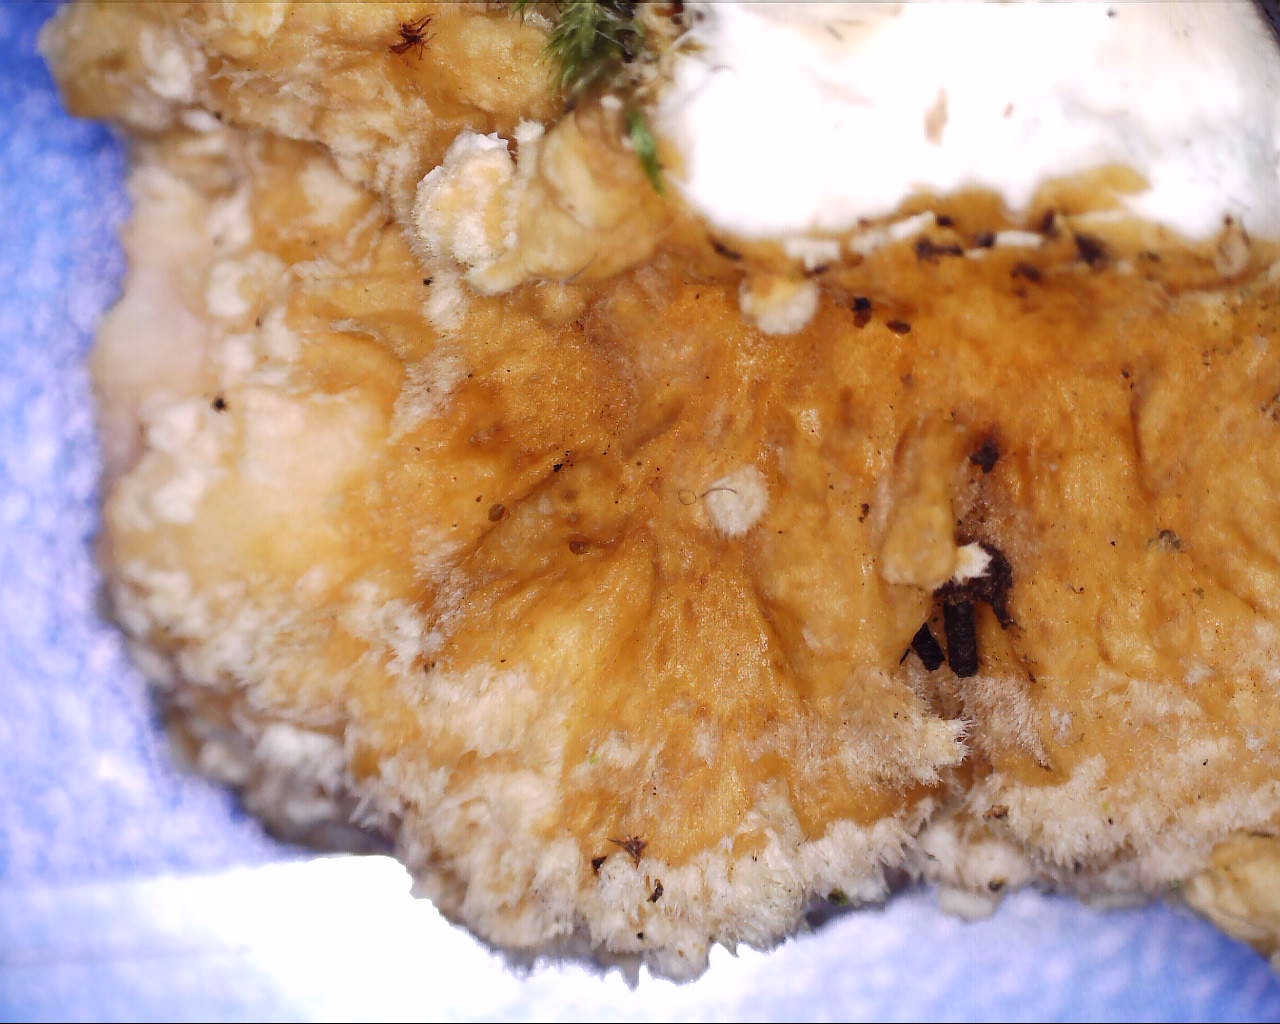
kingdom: Fungi
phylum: Basidiomycota
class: Agaricomycetes
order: Polyporales
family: Polyporaceae
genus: Trametes
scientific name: Trametes ochracea
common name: bæltet læderporesvamp
